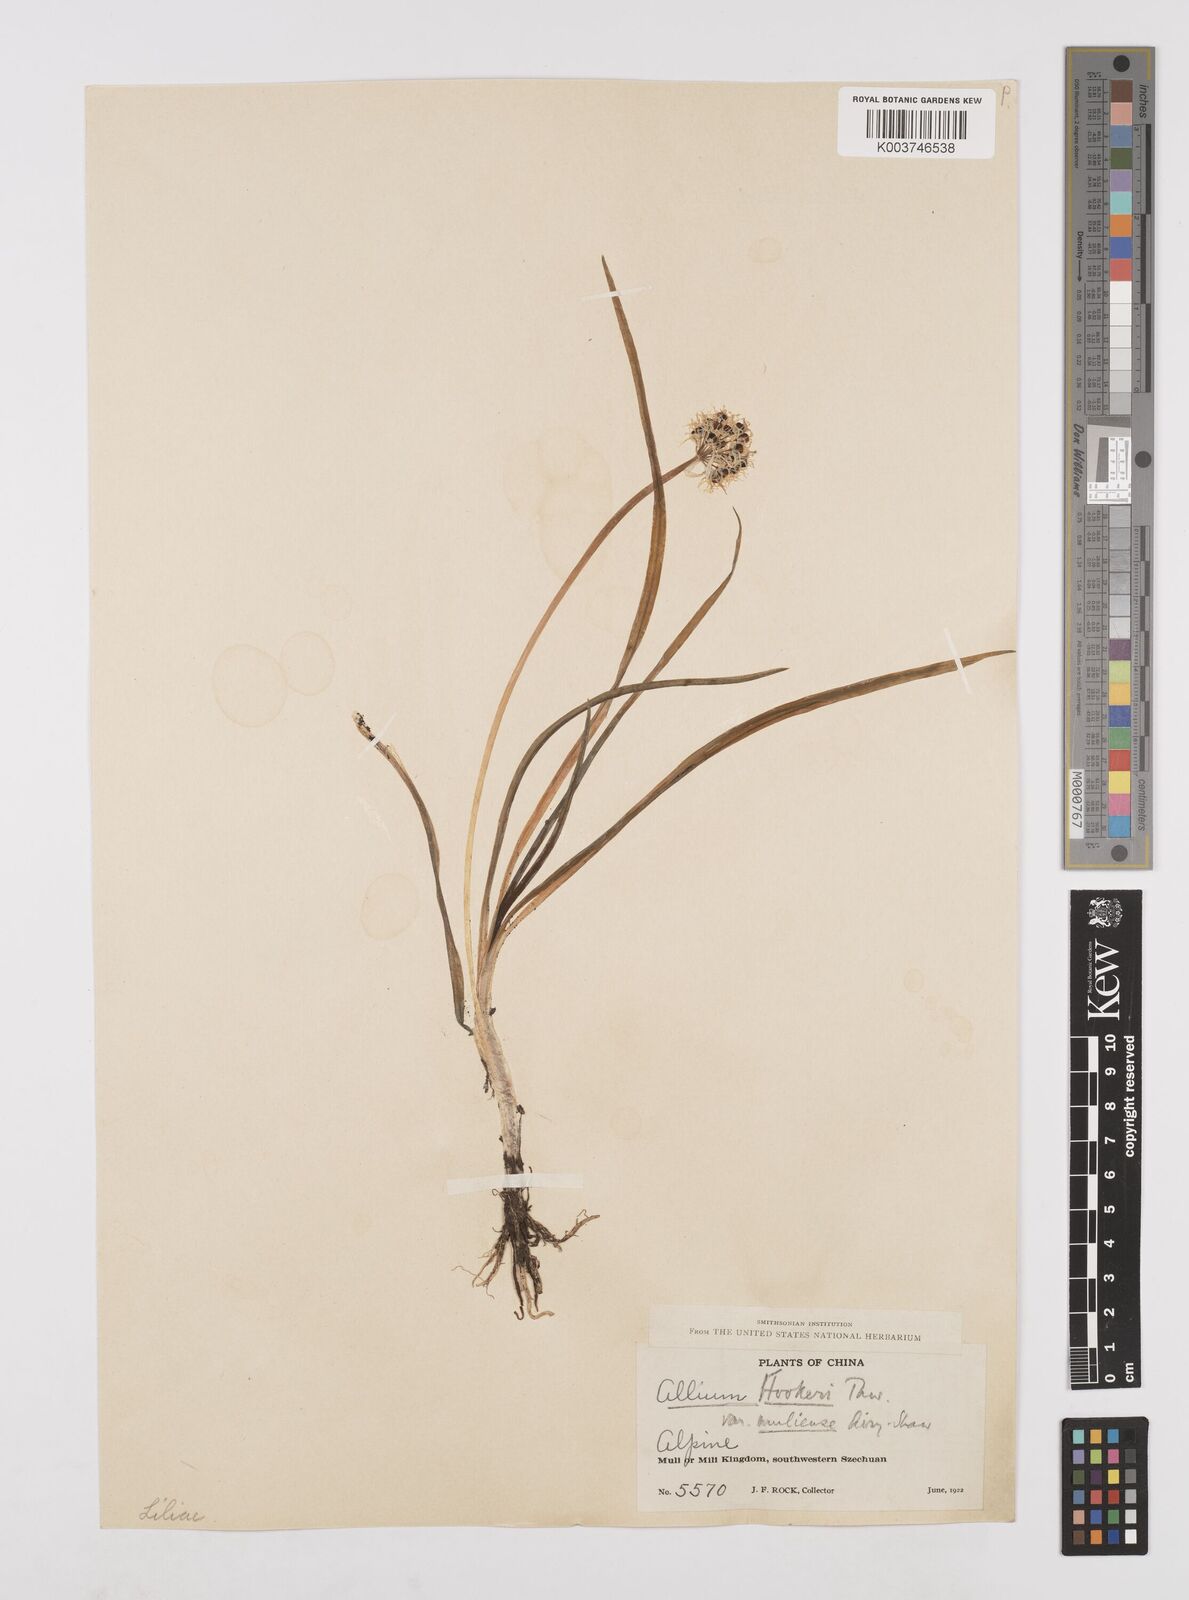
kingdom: Plantae
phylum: Tracheophyta
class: Liliopsida
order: Asparagales
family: Amaryllidaceae
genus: Allium
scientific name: Allium hookeri
